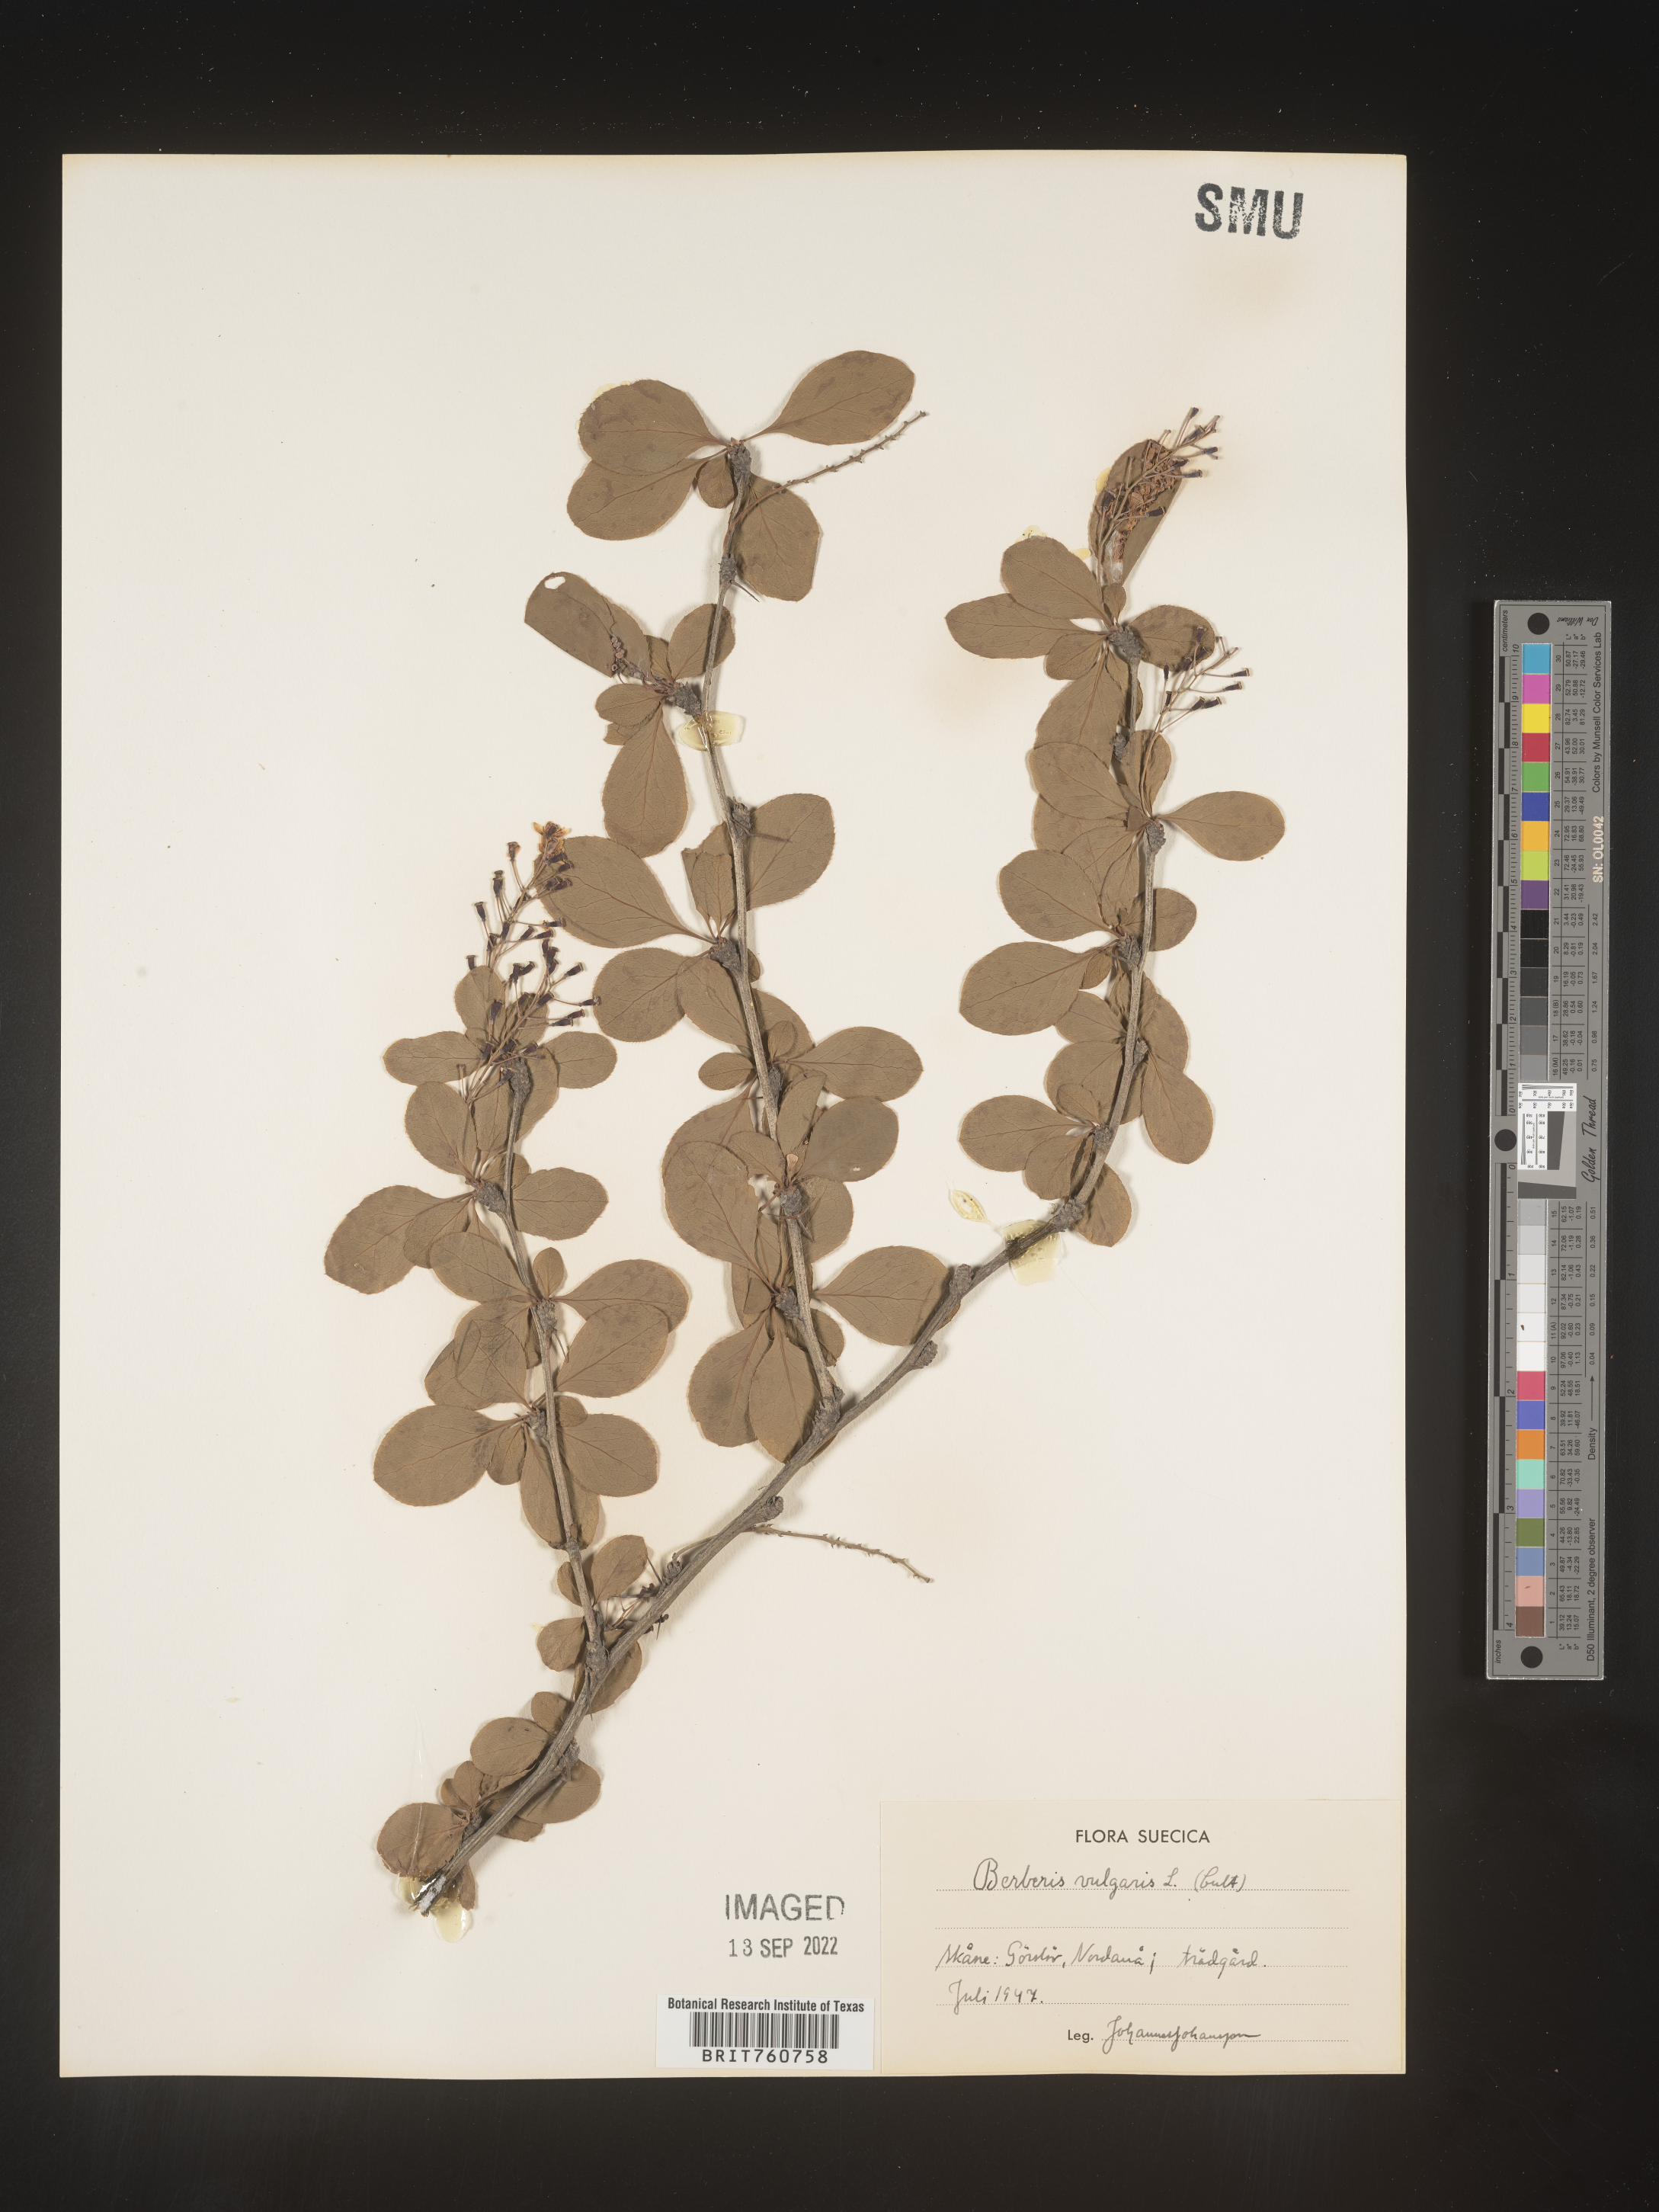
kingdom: Plantae
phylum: Tracheophyta
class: Magnoliopsida
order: Ranunculales
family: Berberidaceae
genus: Berberis
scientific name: Berberis
